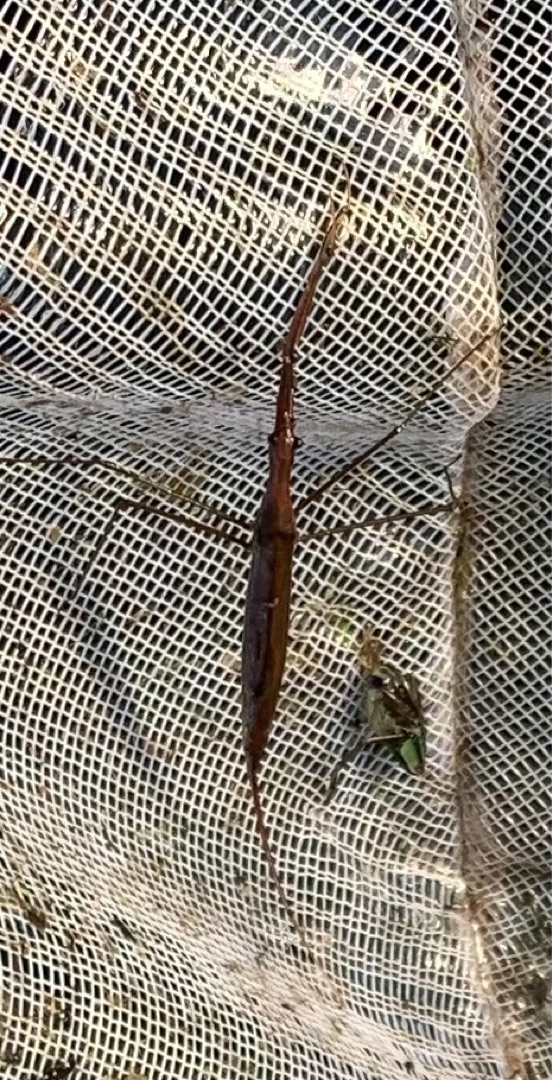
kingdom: Animalia
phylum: Arthropoda
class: Insecta
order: Hemiptera
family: Nepidae
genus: Ranatra
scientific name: Ranatra linearis
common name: Stavtæge
